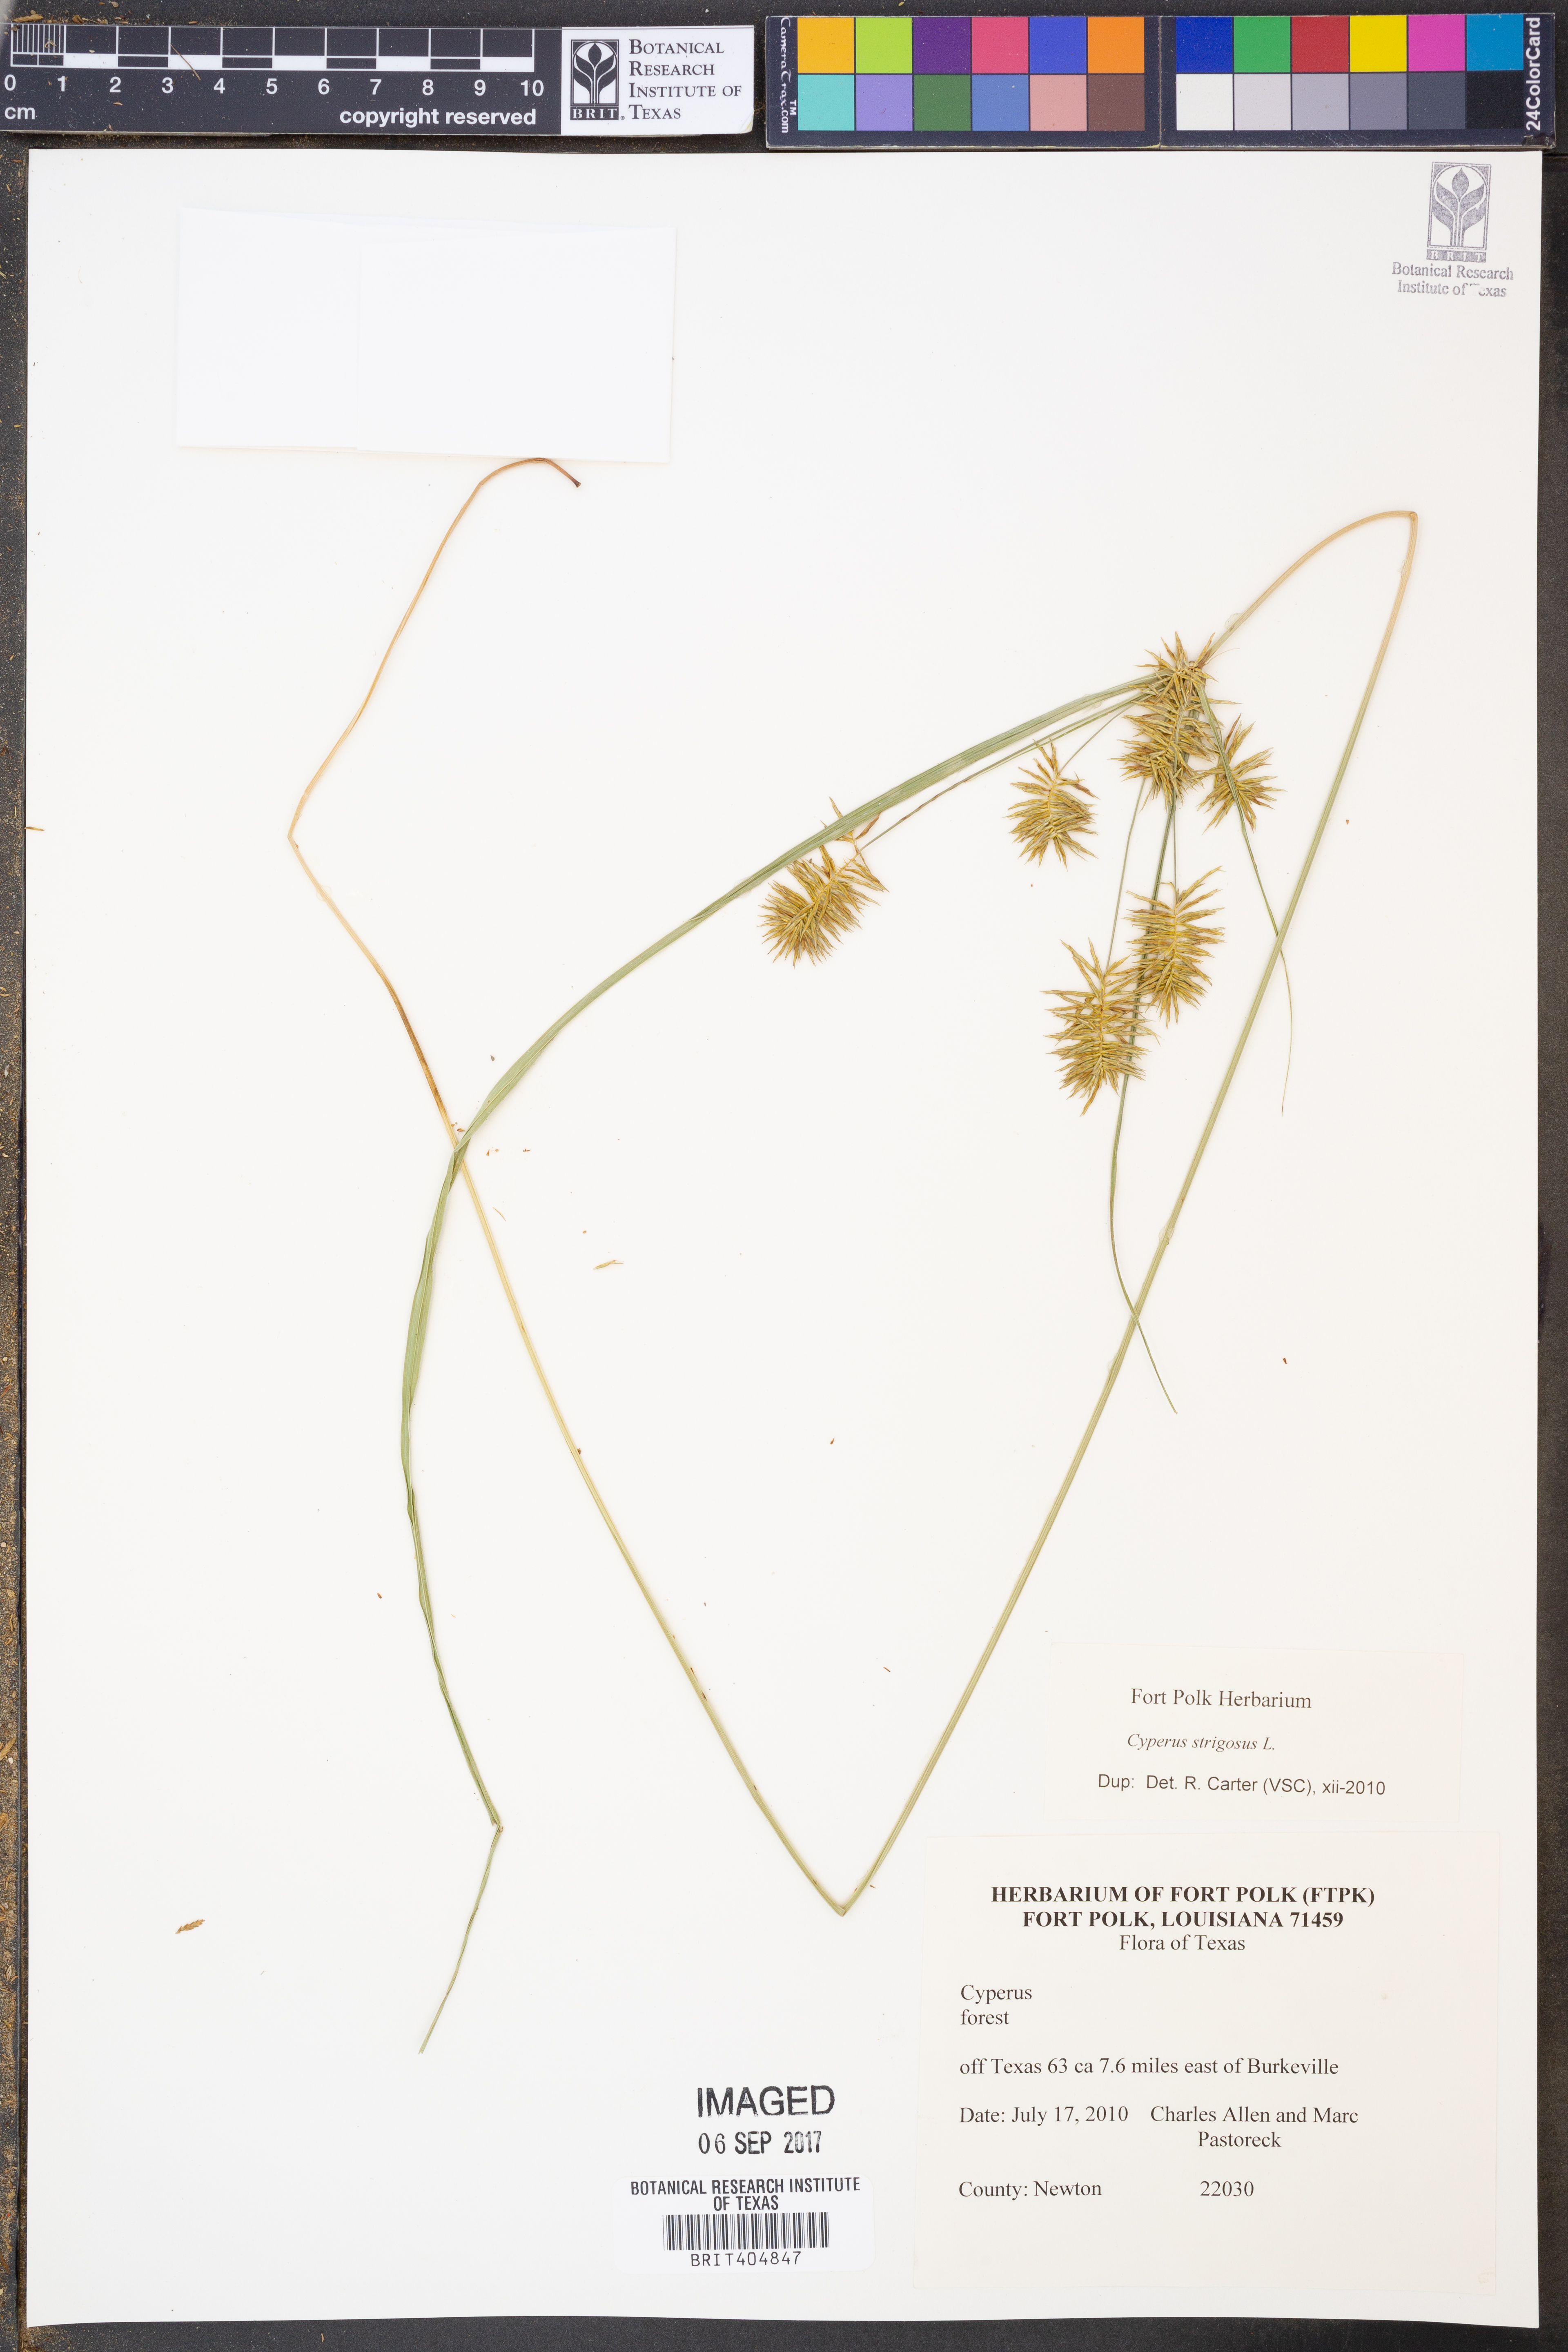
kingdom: Plantae
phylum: Tracheophyta
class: Liliopsida
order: Poales
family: Cyperaceae
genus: Cyperus
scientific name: Cyperus strigosus
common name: False nutsedge
